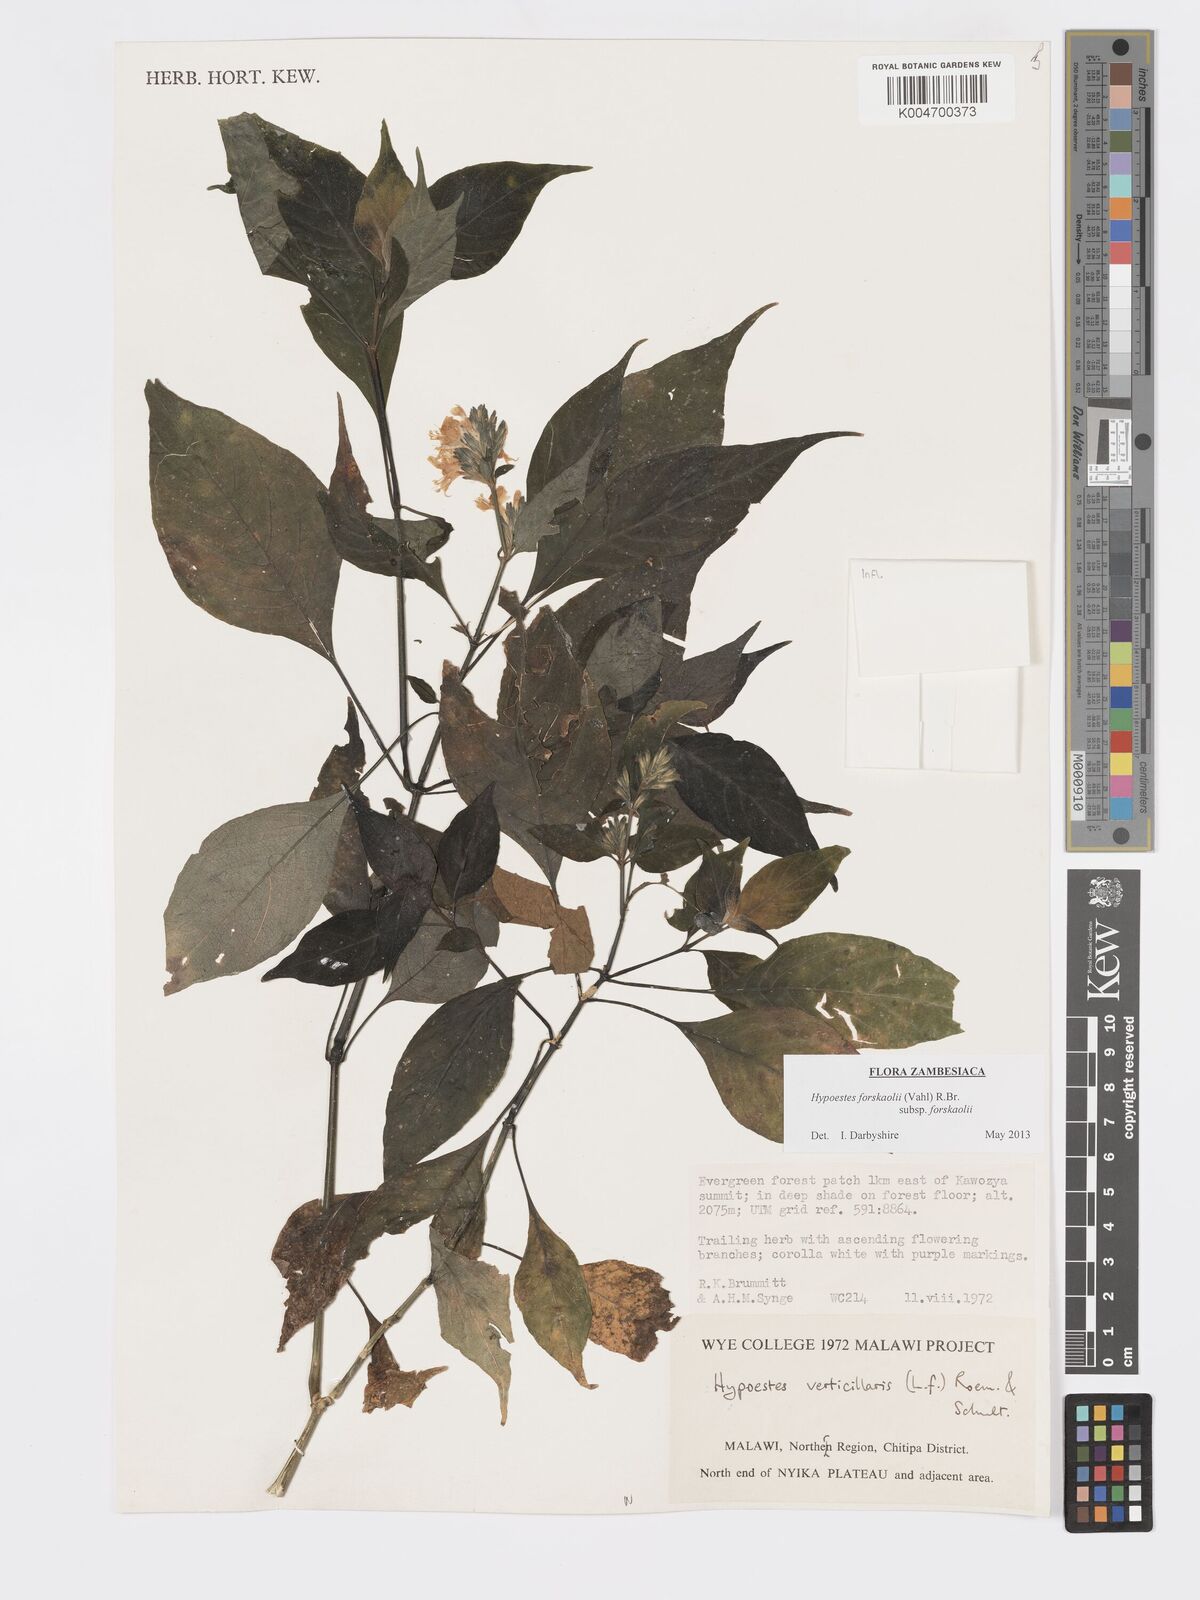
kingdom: Plantae
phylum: Tracheophyta
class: Magnoliopsida
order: Lamiales
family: Acanthaceae
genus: Hypoestes
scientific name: Hypoestes forskaolii
